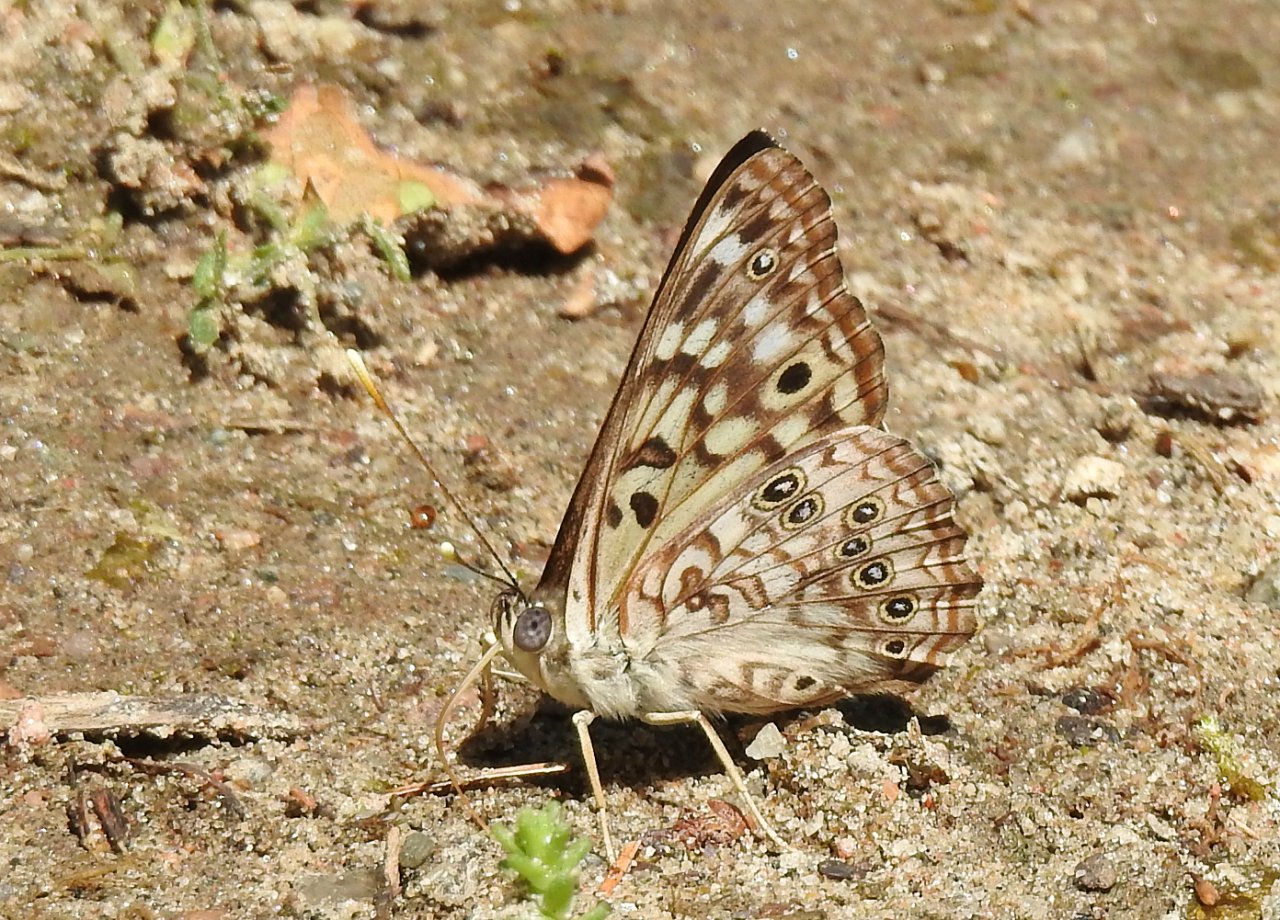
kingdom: Animalia
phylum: Arthropoda
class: Insecta
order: Lepidoptera
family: Nymphalidae
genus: Asterocampa
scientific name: Asterocampa celtis
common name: Hackberry Emperor
